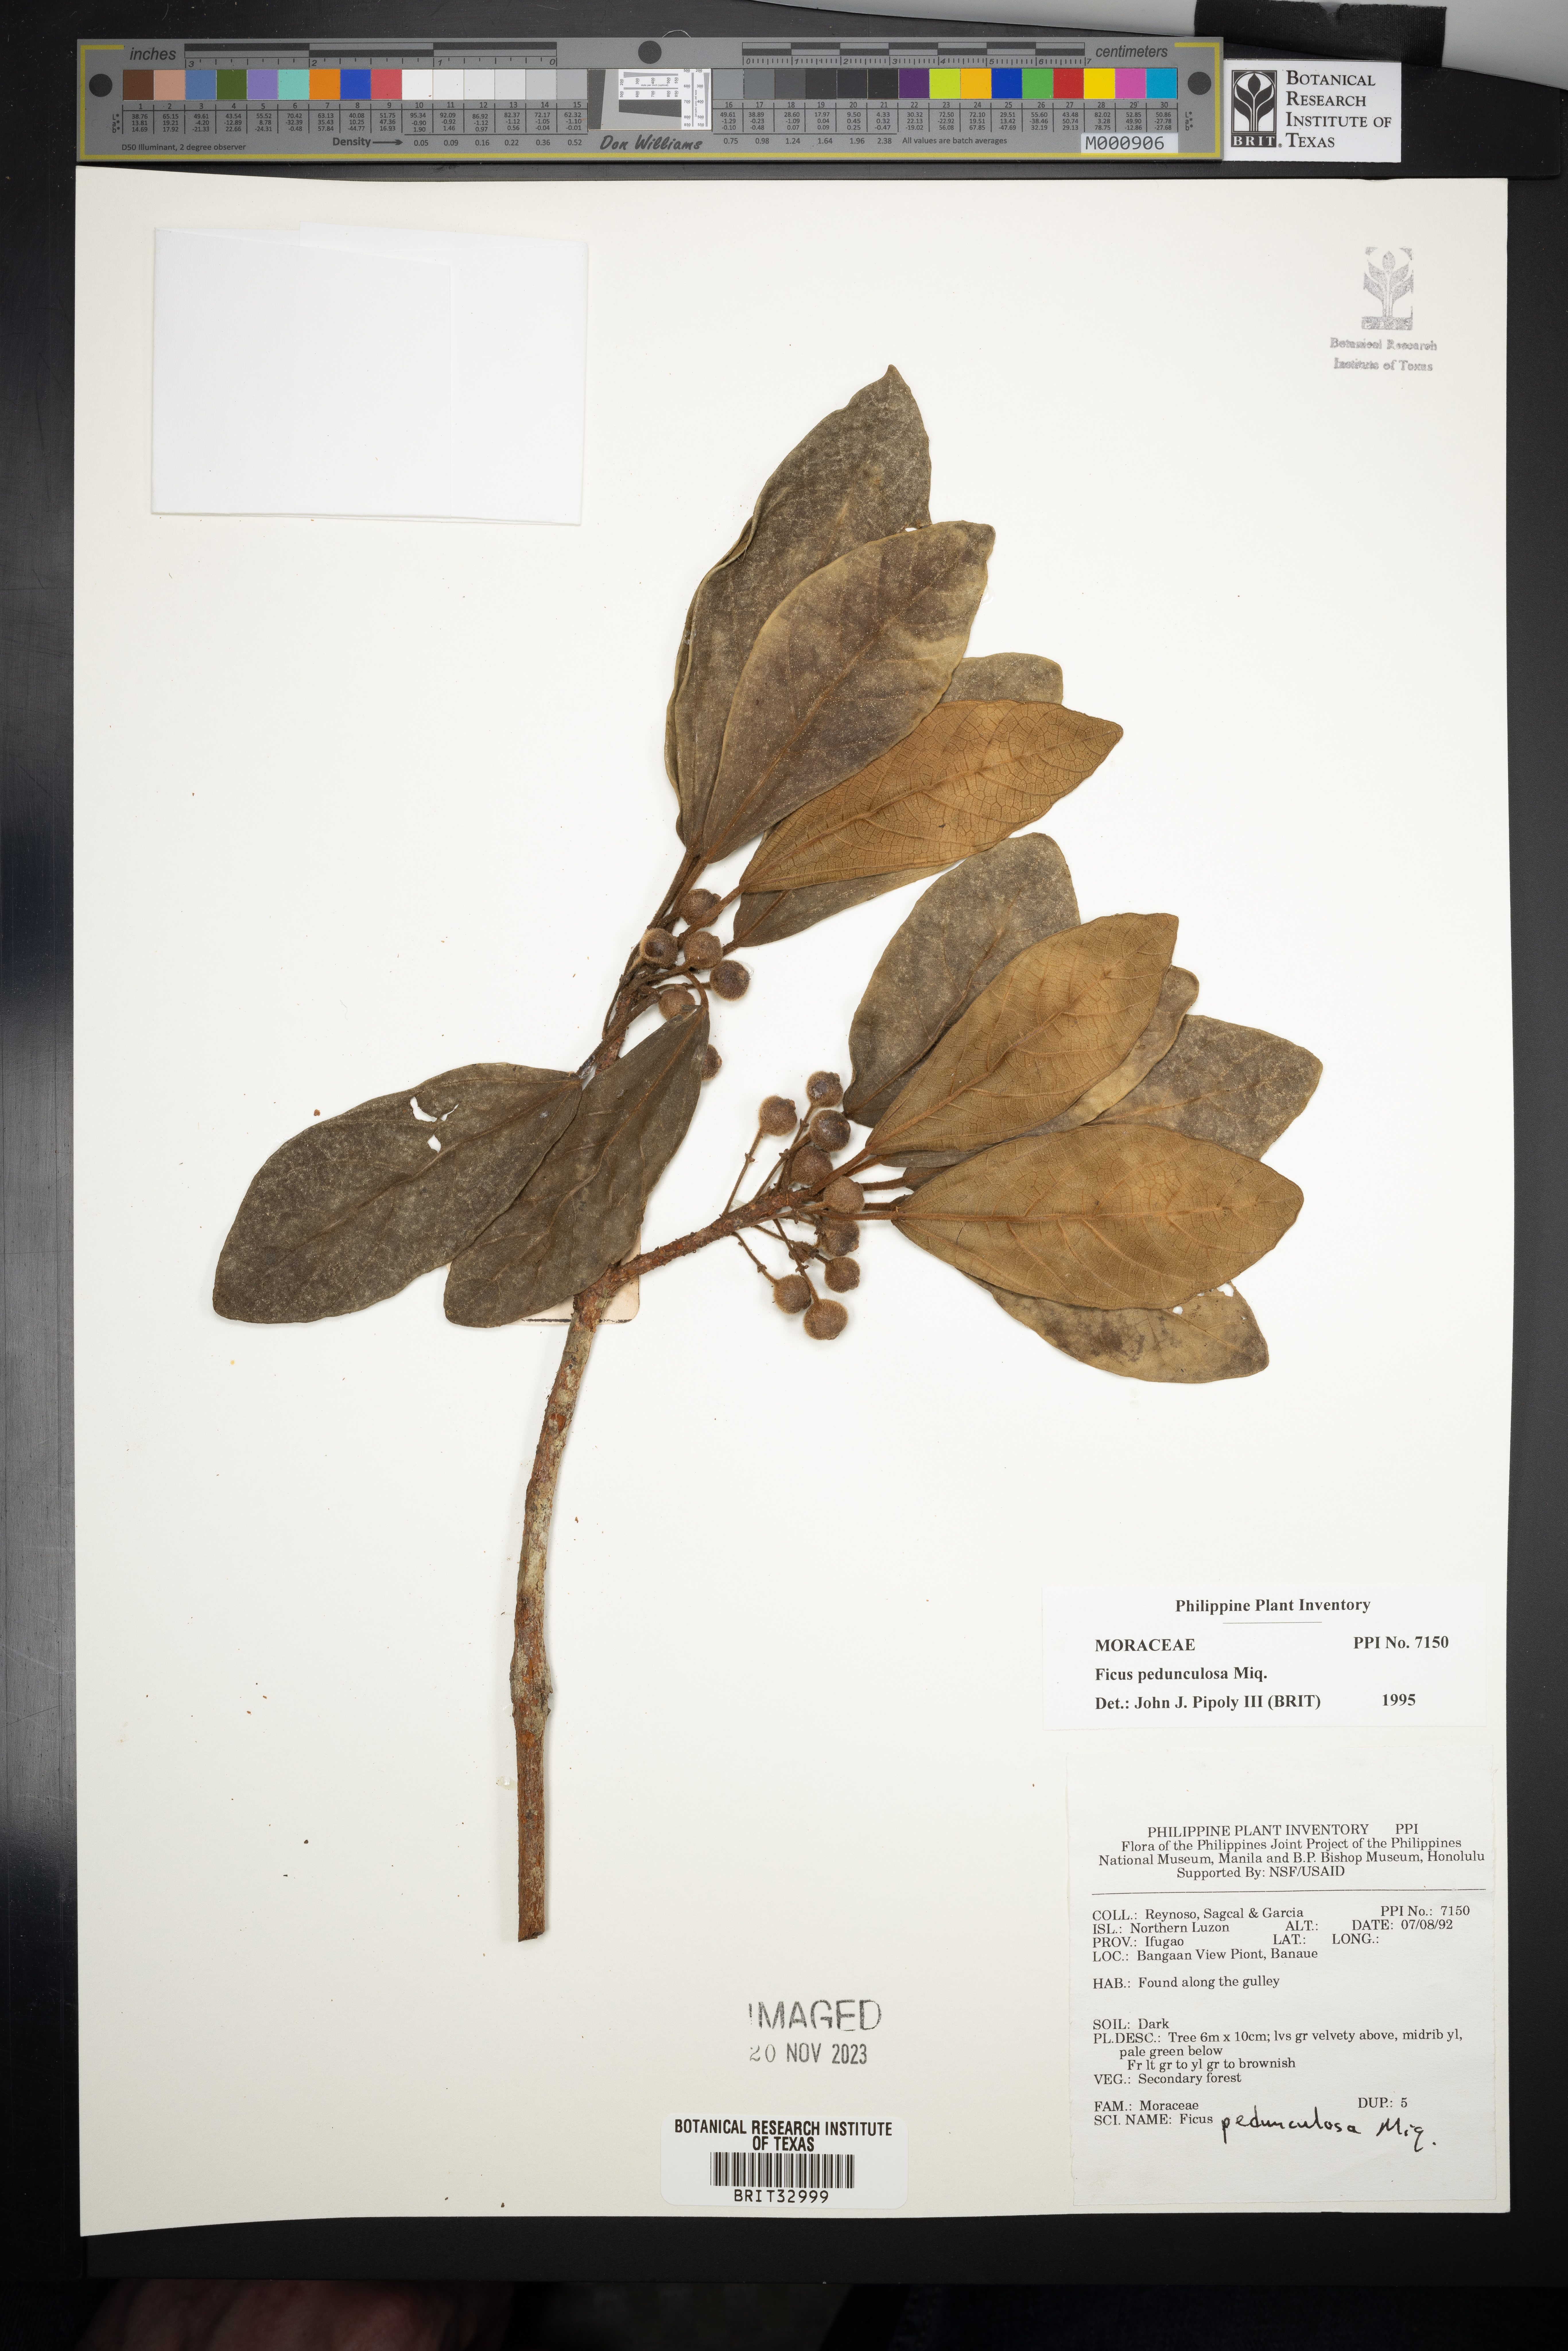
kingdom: Plantae
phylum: Tracheophyta
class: Magnoliopsida
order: Rosales
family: Moraceae
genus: Ficus
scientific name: Ficus pedunculosa
